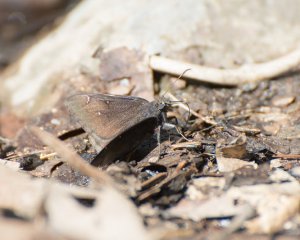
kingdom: Animalia
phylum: Arthropoda
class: Insecta
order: Lepidoptera
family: Hesperiidae
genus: Autochton
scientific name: Autochton
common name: Northern Cloudywing
